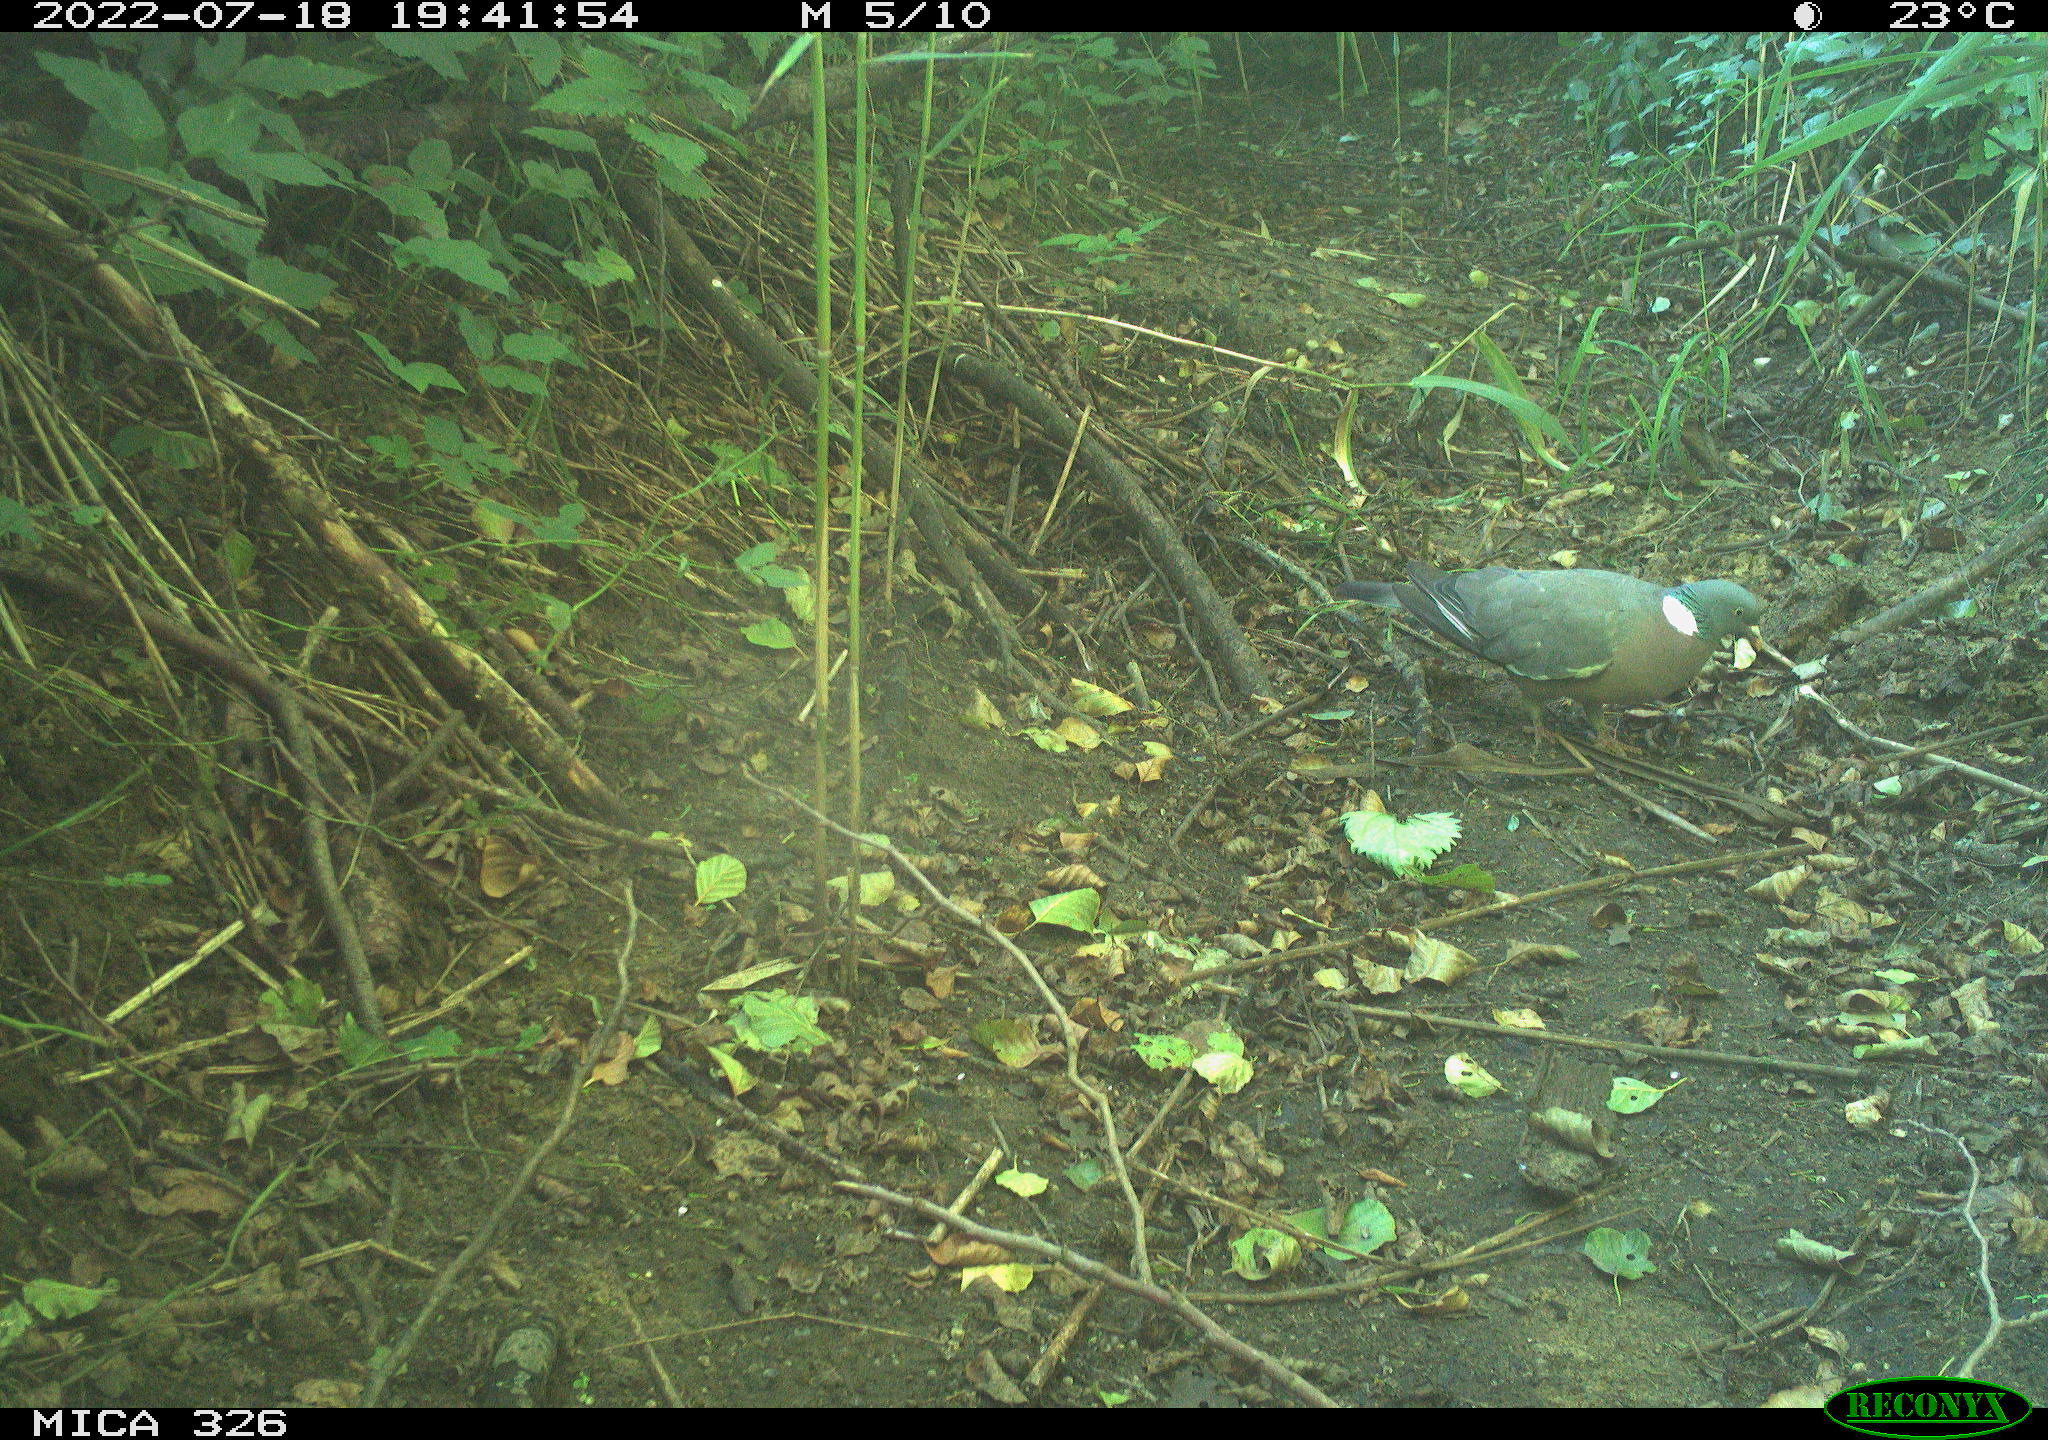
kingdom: Animalia
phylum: Chordata
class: Aves
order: Columbiformes
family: Columbidae
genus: Columba
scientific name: Columba palumbus
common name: Common wood pigeon
